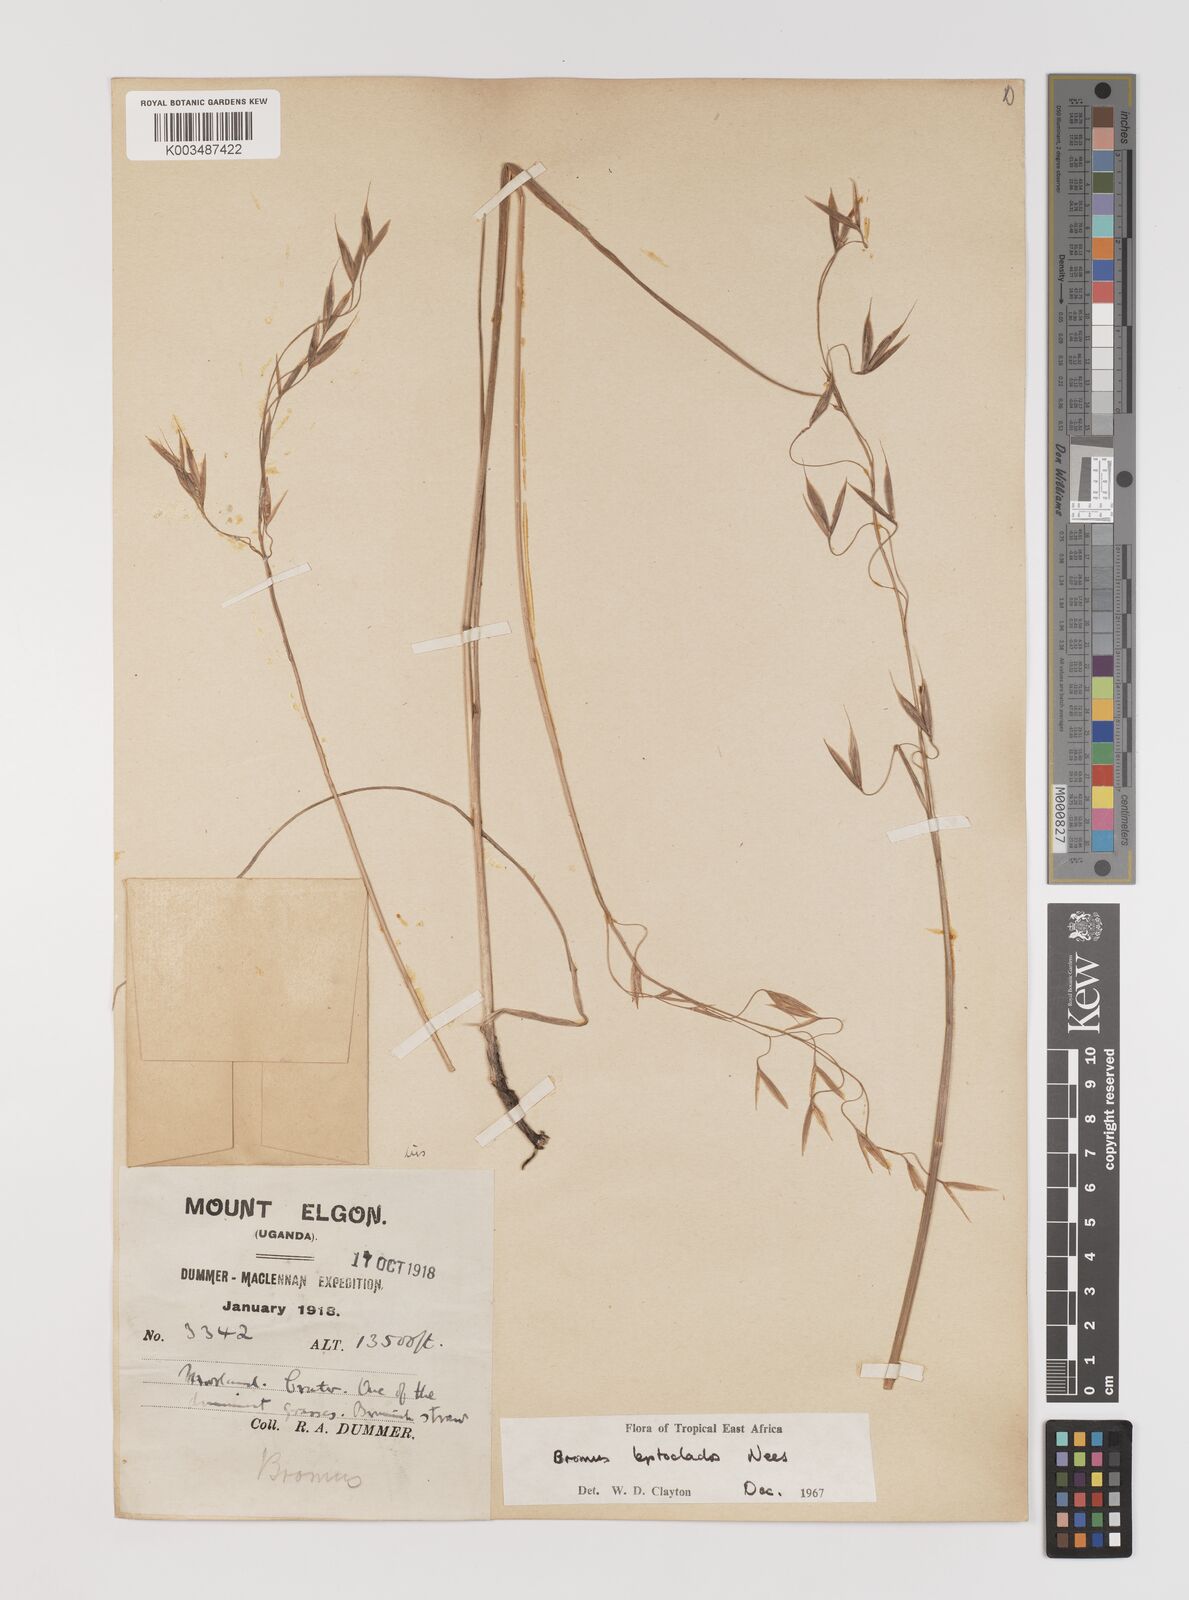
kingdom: Plantae
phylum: Tracheophyta
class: Liliopsida
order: Poales
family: Poaceae
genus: Bromus
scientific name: Bromus leptoclados
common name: Mountain bromegrass
